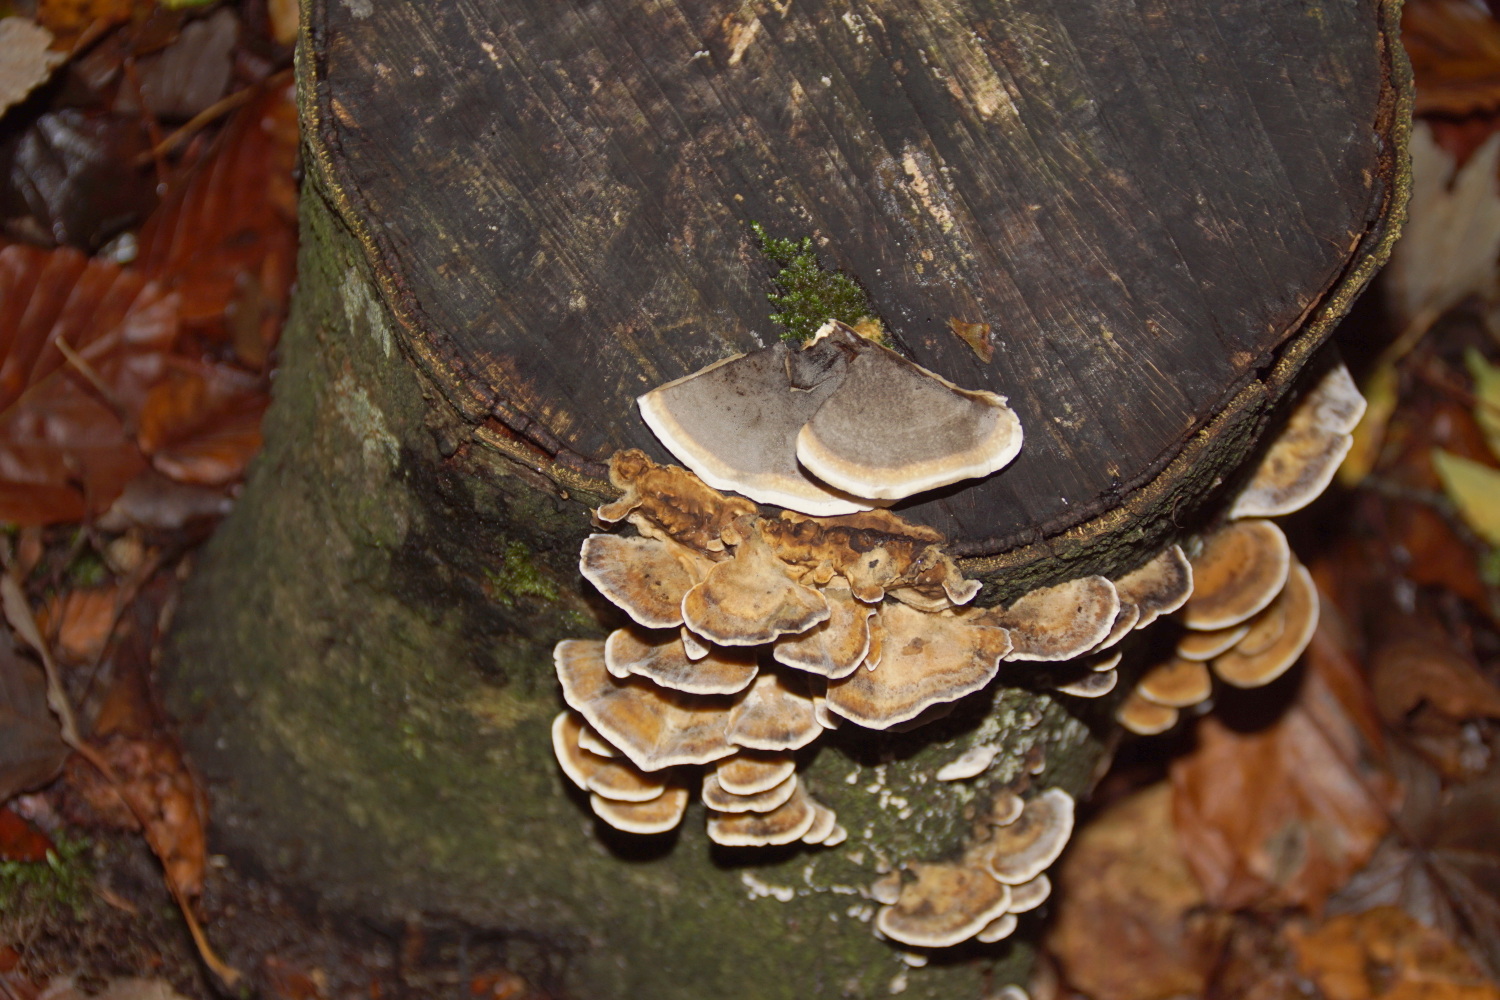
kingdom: Fungi
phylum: Basidiomycota
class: Agaricomycetes
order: Polyporales
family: Phanerochaetaceae
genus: Bjerkandera
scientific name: Bjerkandera adusta
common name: sveden sodporesvamp
